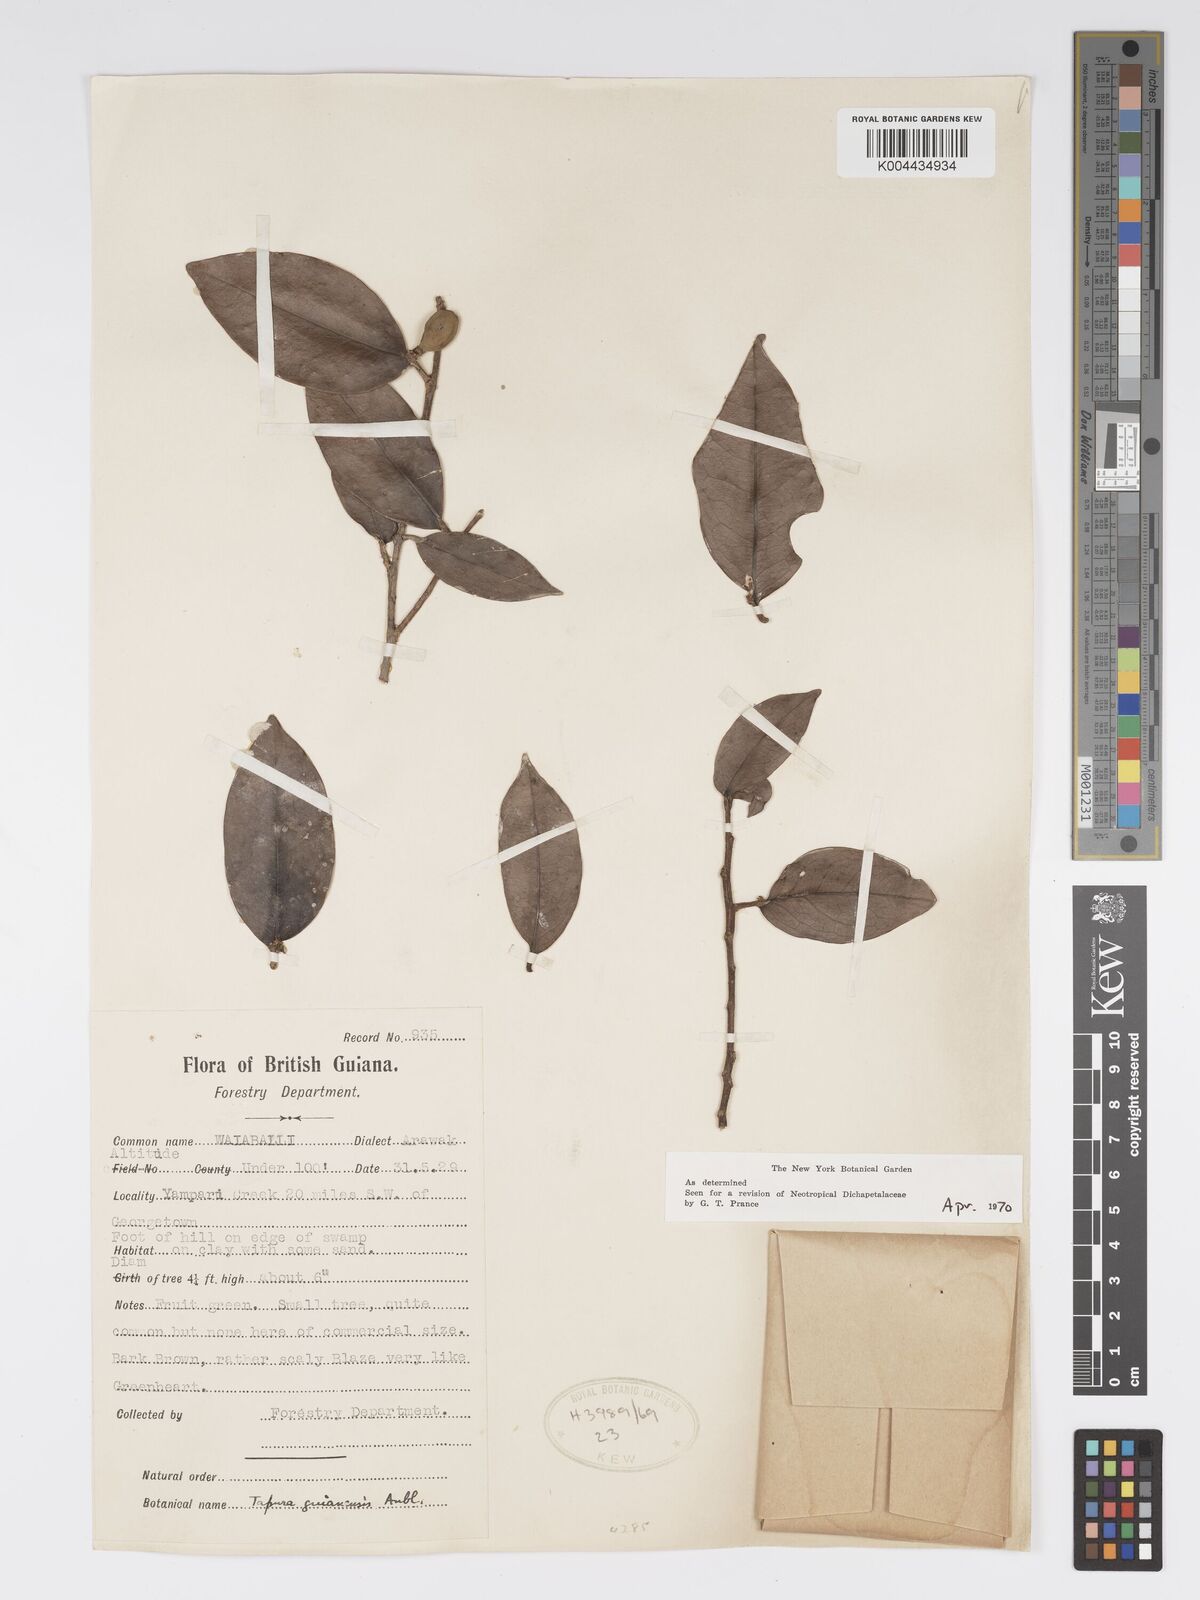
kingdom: Plantae
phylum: Tracheophyta
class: Magnoliopsida
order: Malpighiales
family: Dichapetalaceae
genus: Tapura
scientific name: Tapura guianensis
